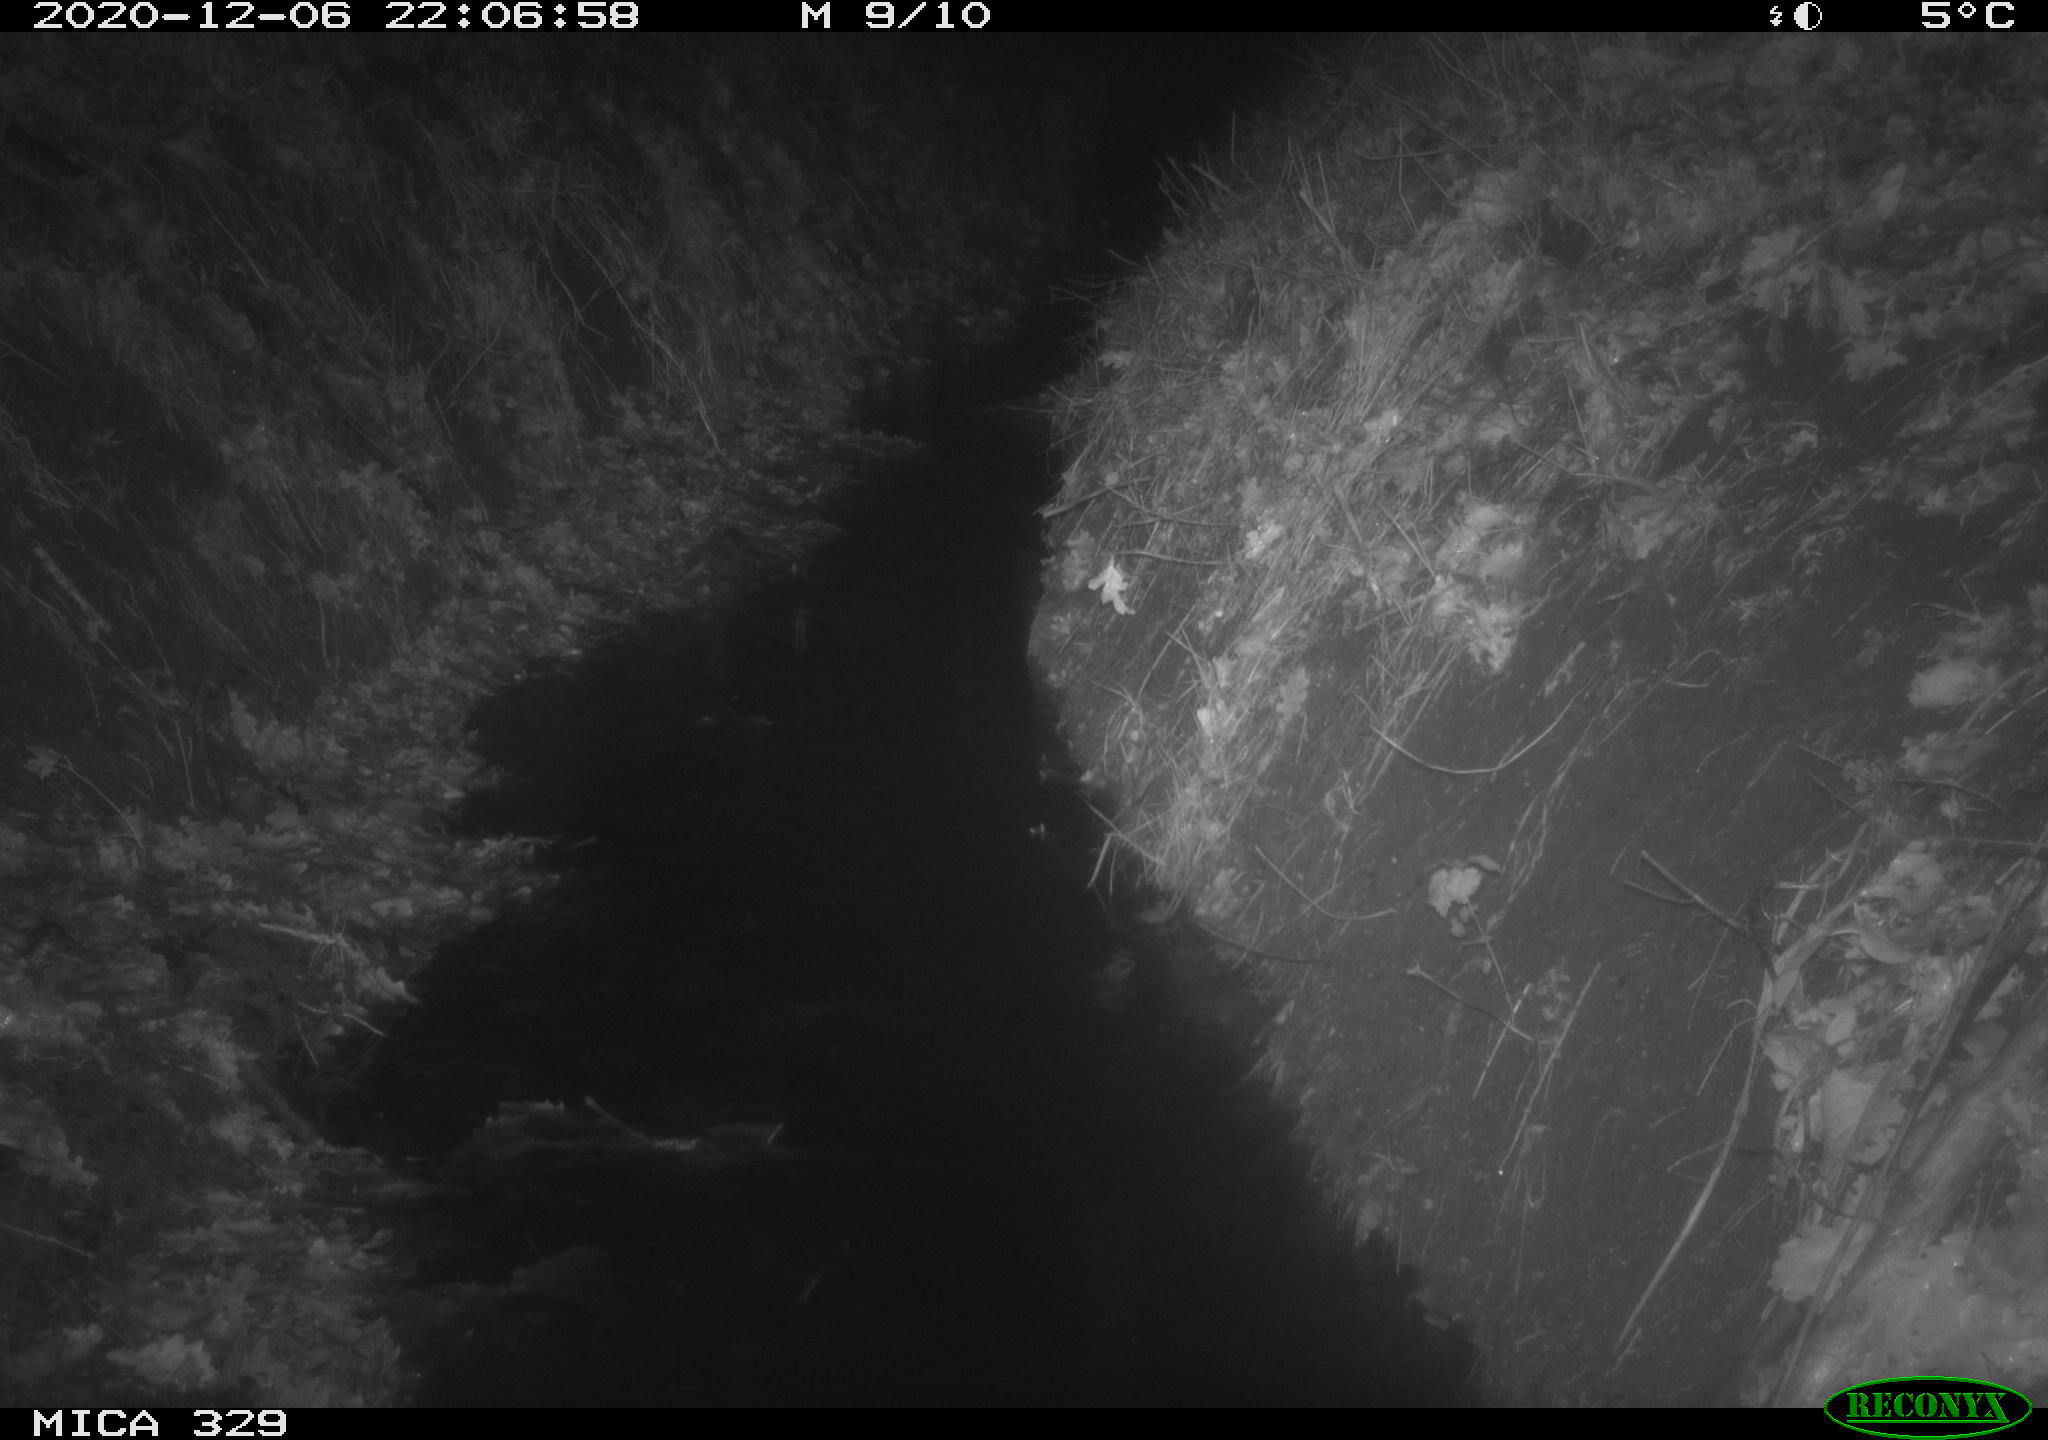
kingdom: Animalia
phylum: Chordata
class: Mammalia
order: Rodentia
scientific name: Rodentia
